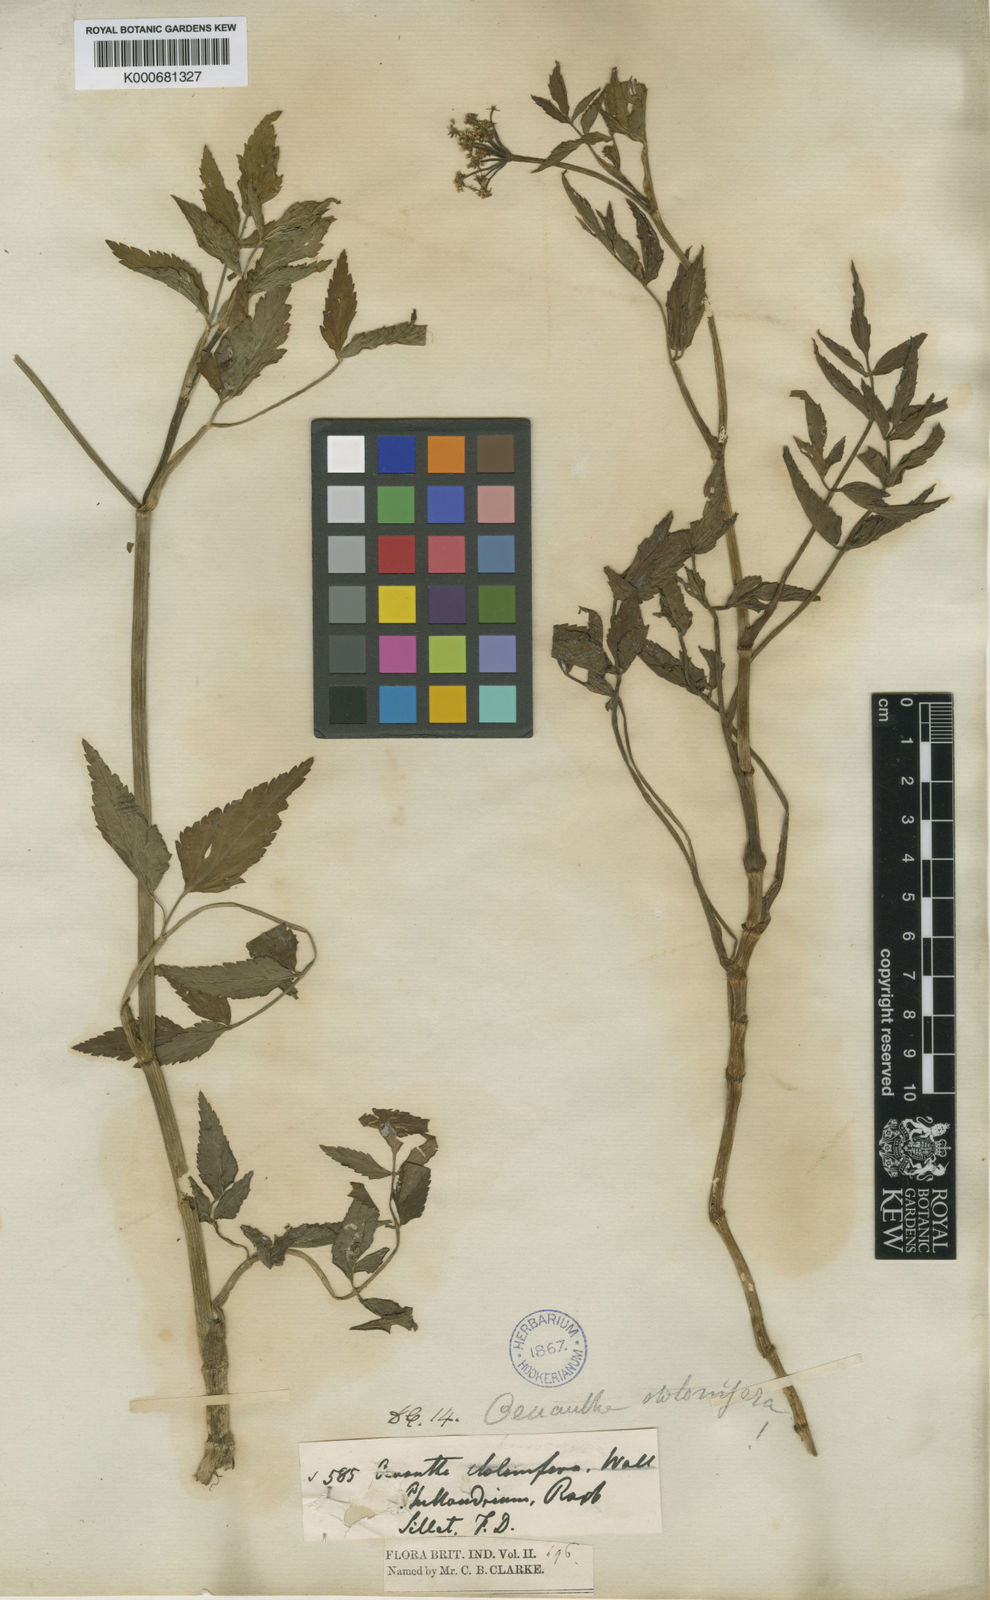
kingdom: Plantae
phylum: Tracheophyta
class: Magnoliopsida
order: Apiales
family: Apiaceae
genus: Oenanthe
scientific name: Oenanthe
